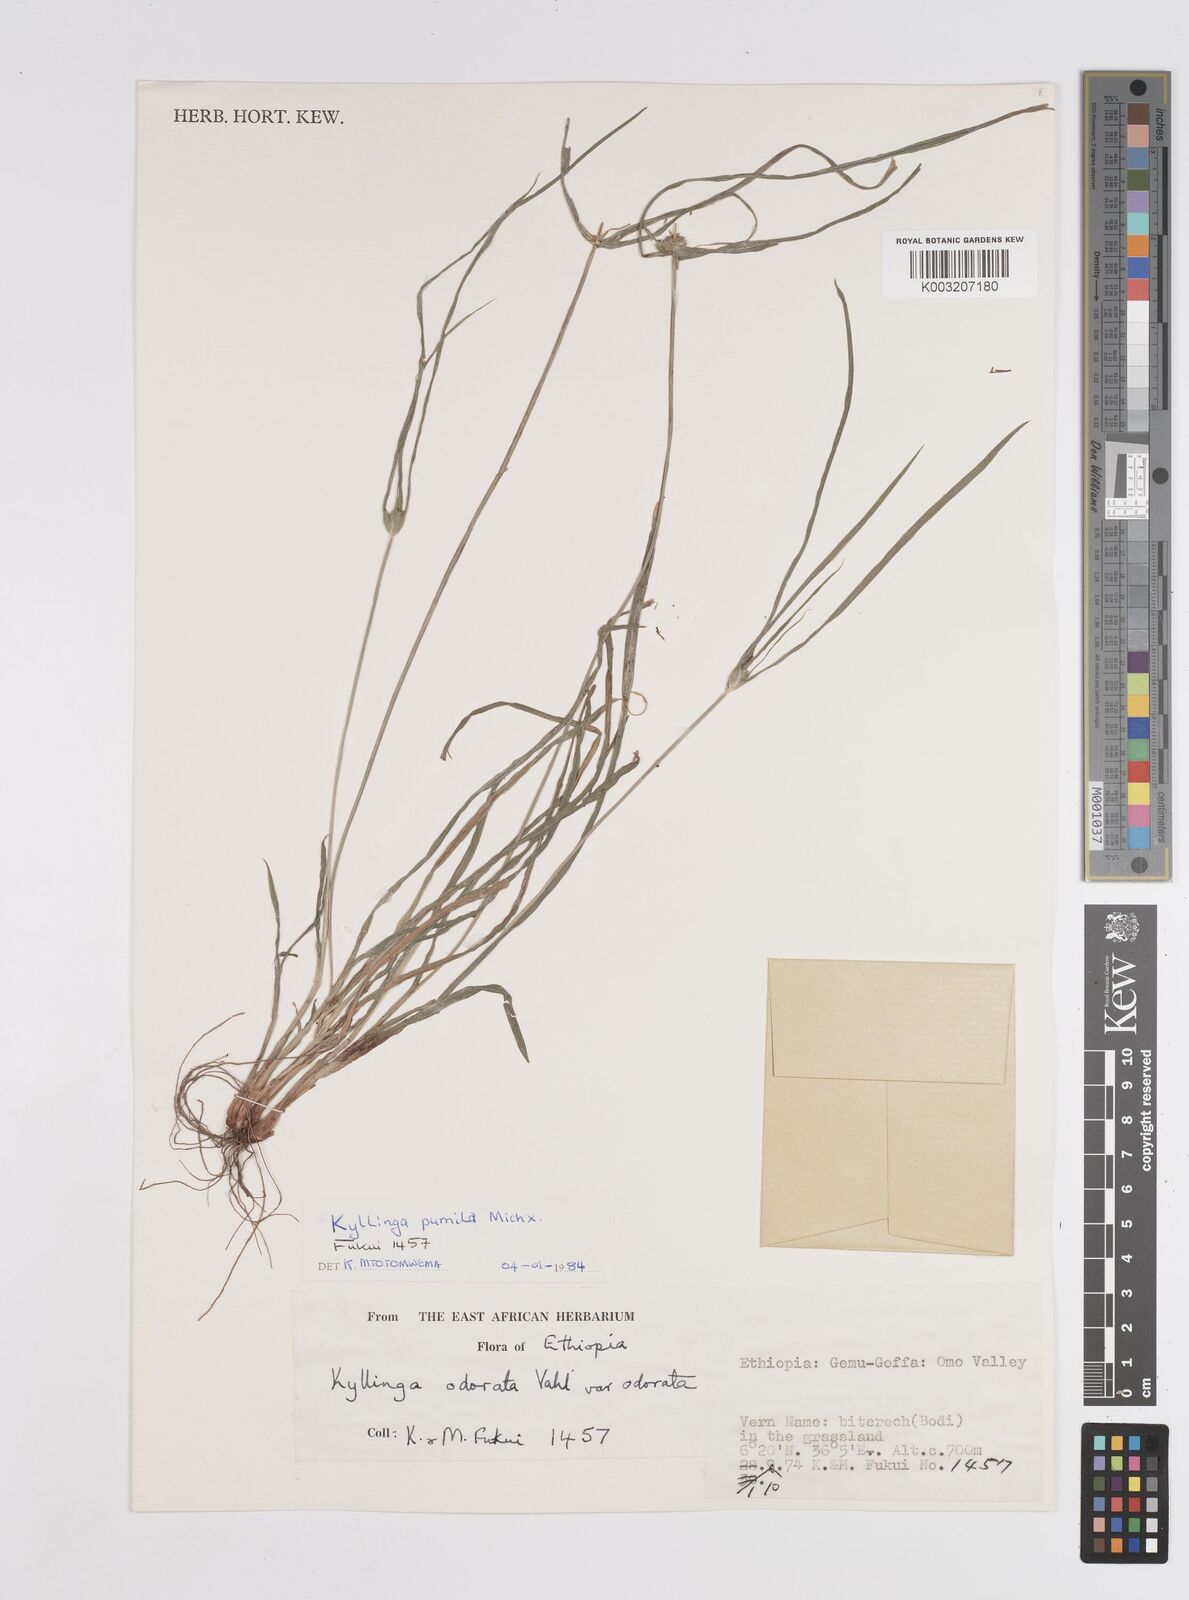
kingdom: Plantae
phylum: Tracheophyta
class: Liliopsida
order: Poales
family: Cyperaceae
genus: Cyperus
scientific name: Cyperus
